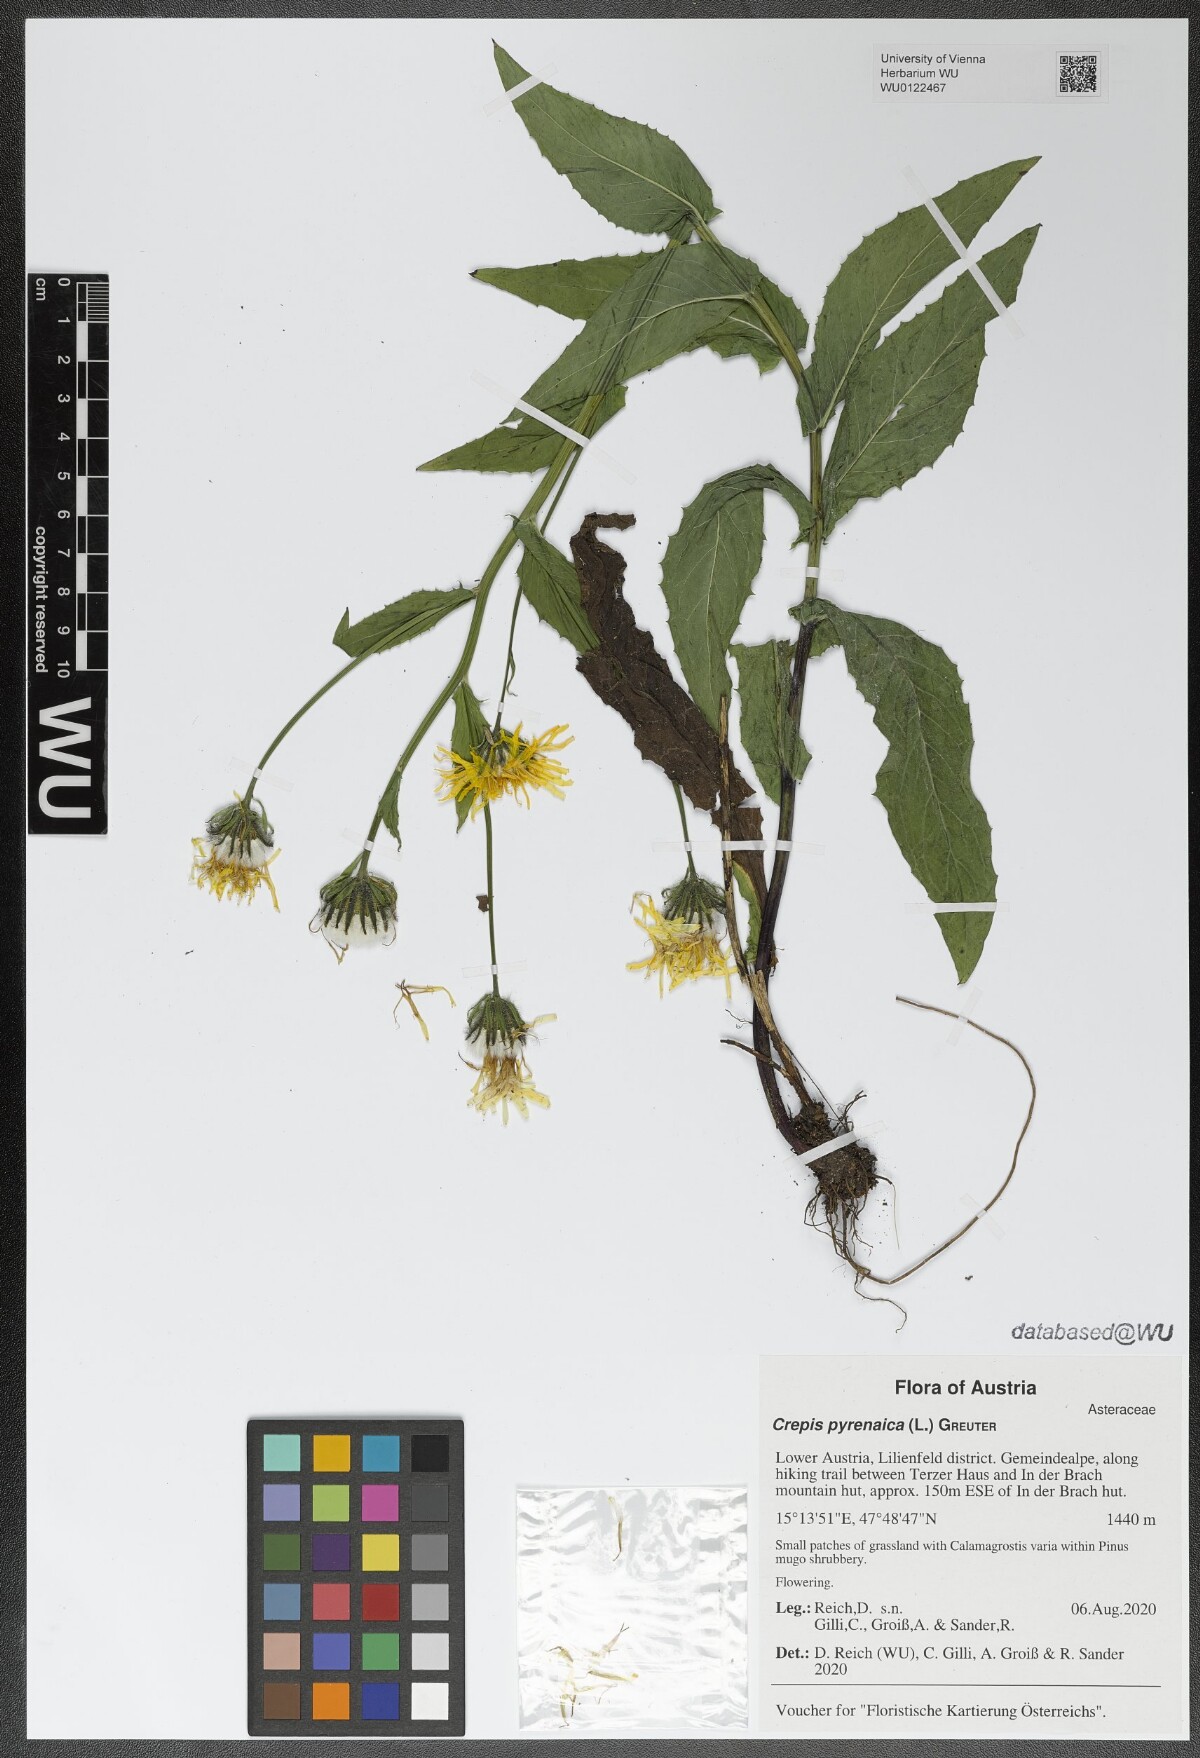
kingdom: Plantae
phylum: Tracheophyta
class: Magnoliopsida
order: Asterales
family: Asteraceae
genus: Crepis
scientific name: Crepis pyrenaica
